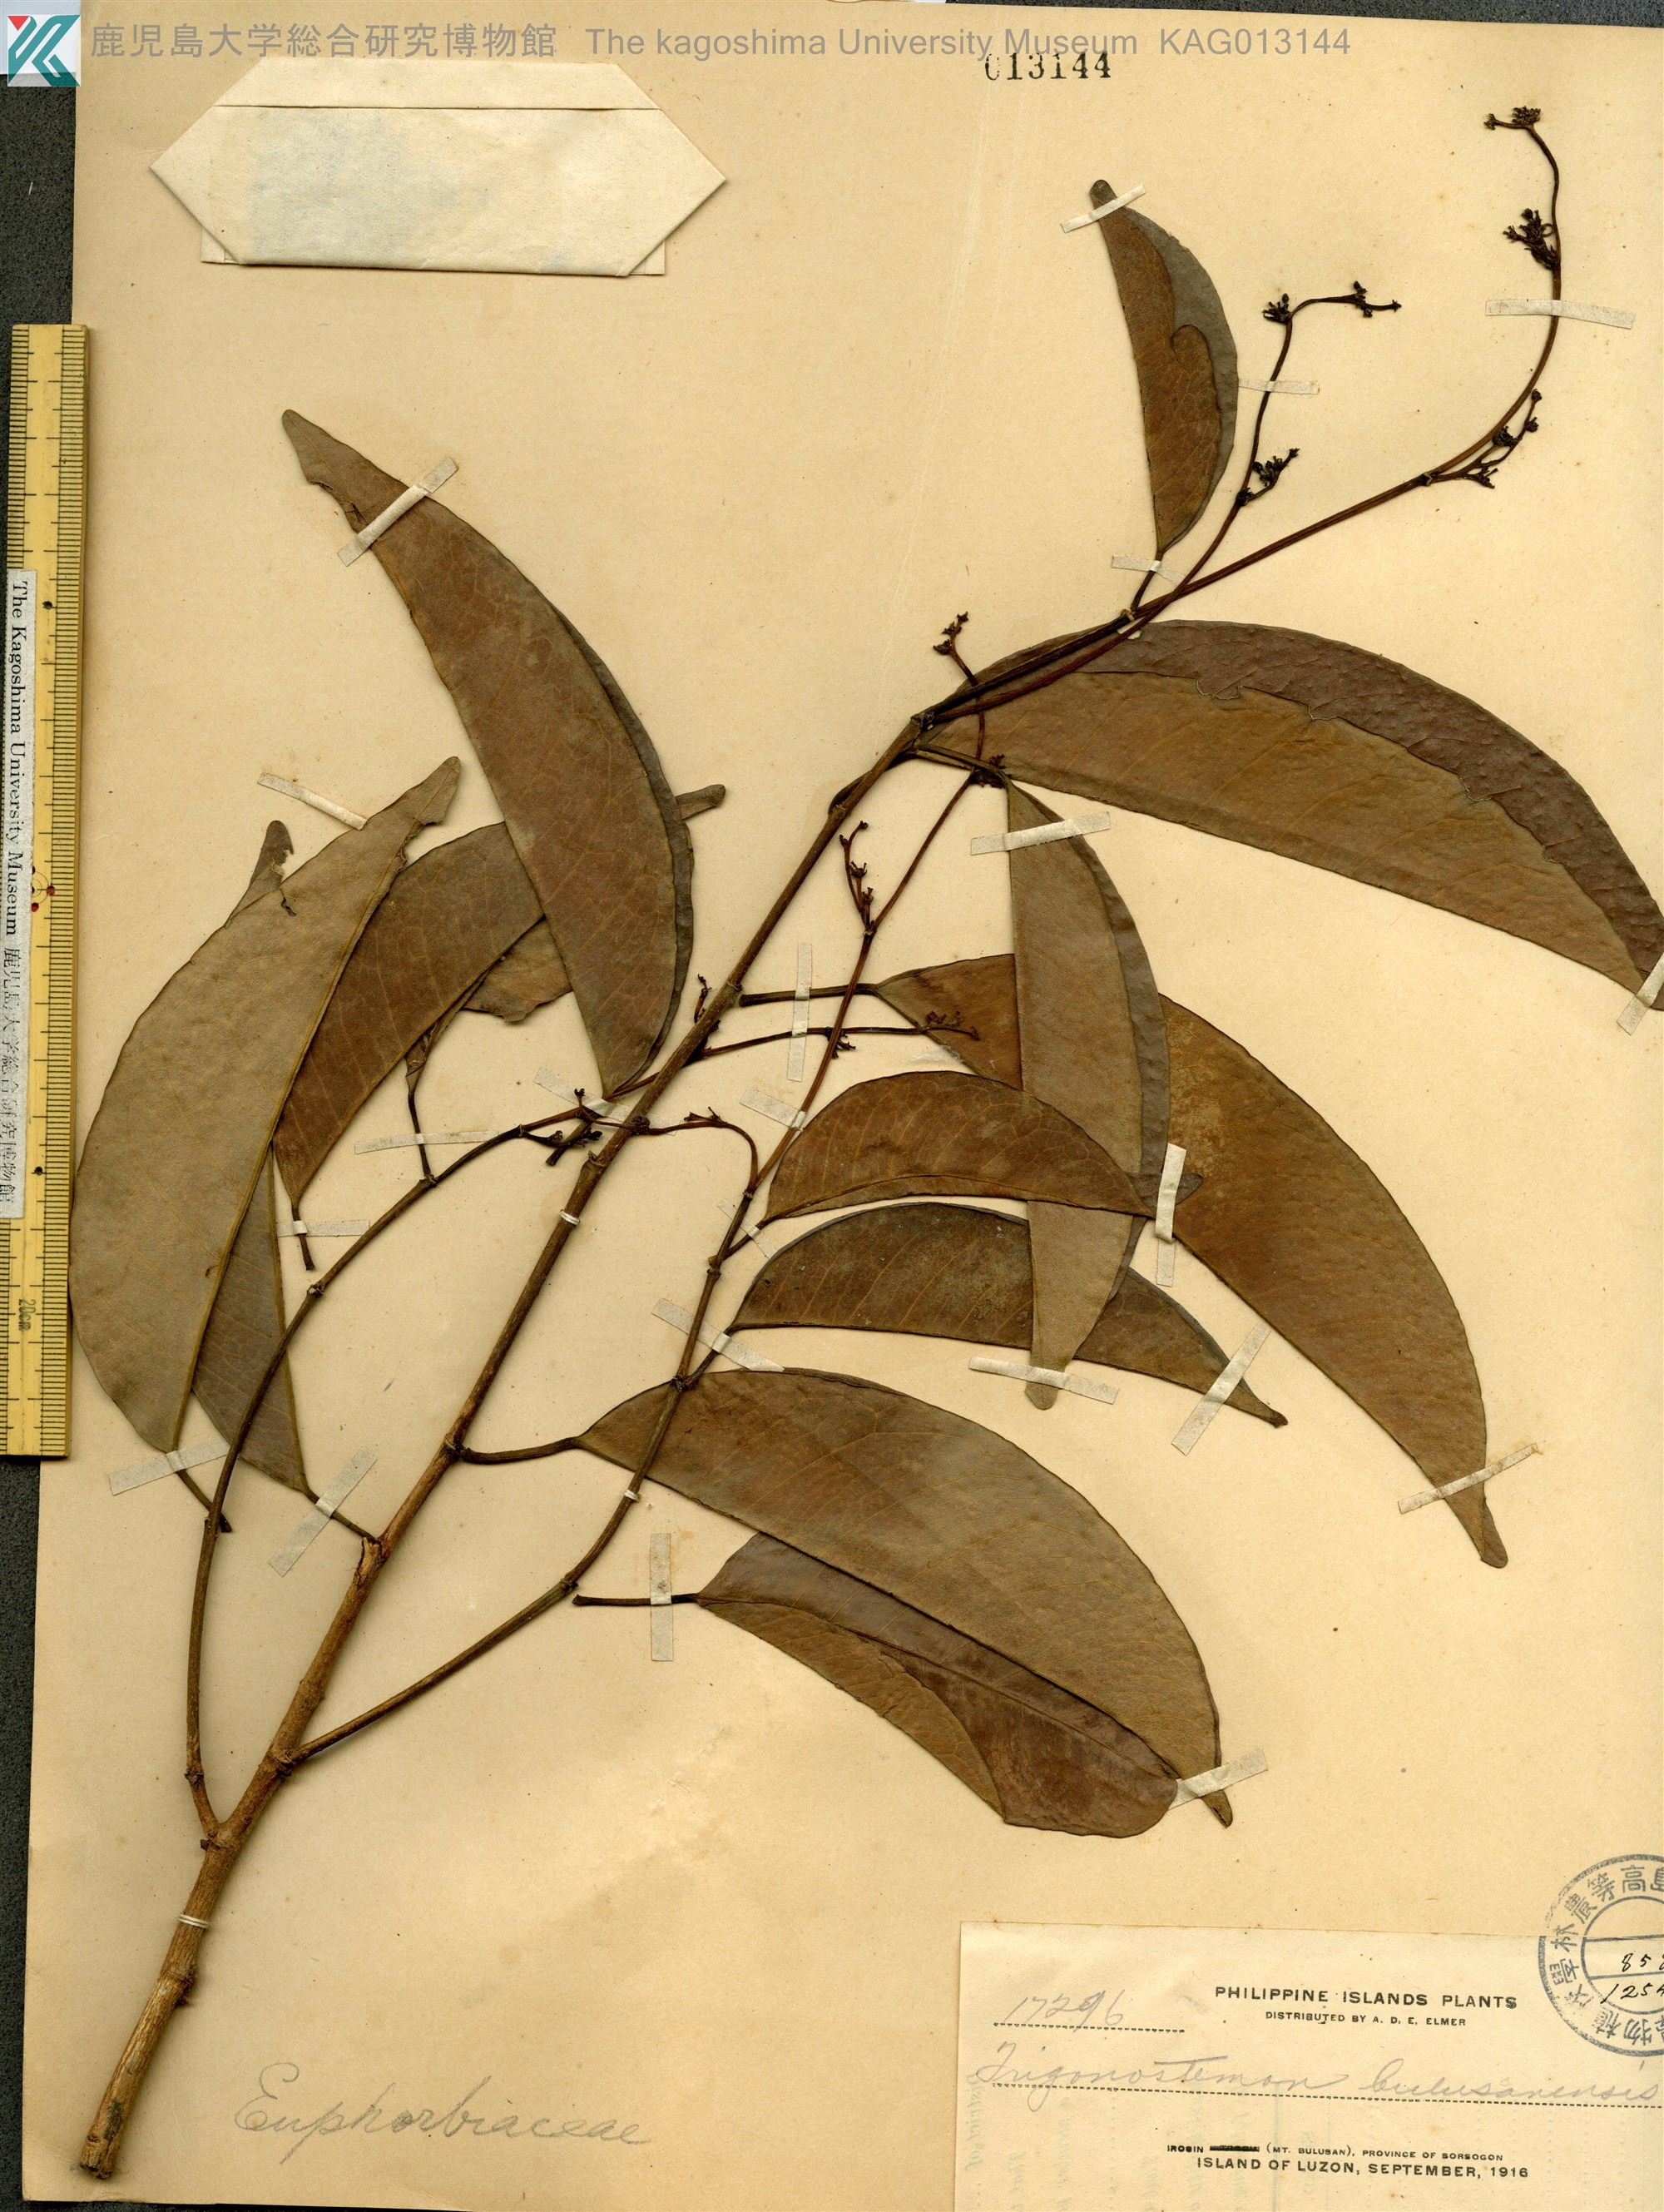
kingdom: Plantae
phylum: Tracheophyta
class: Magnoliopsida
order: Malpighiales
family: Euphorbiaceae
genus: Trigonostemon
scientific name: Trigonostemon
